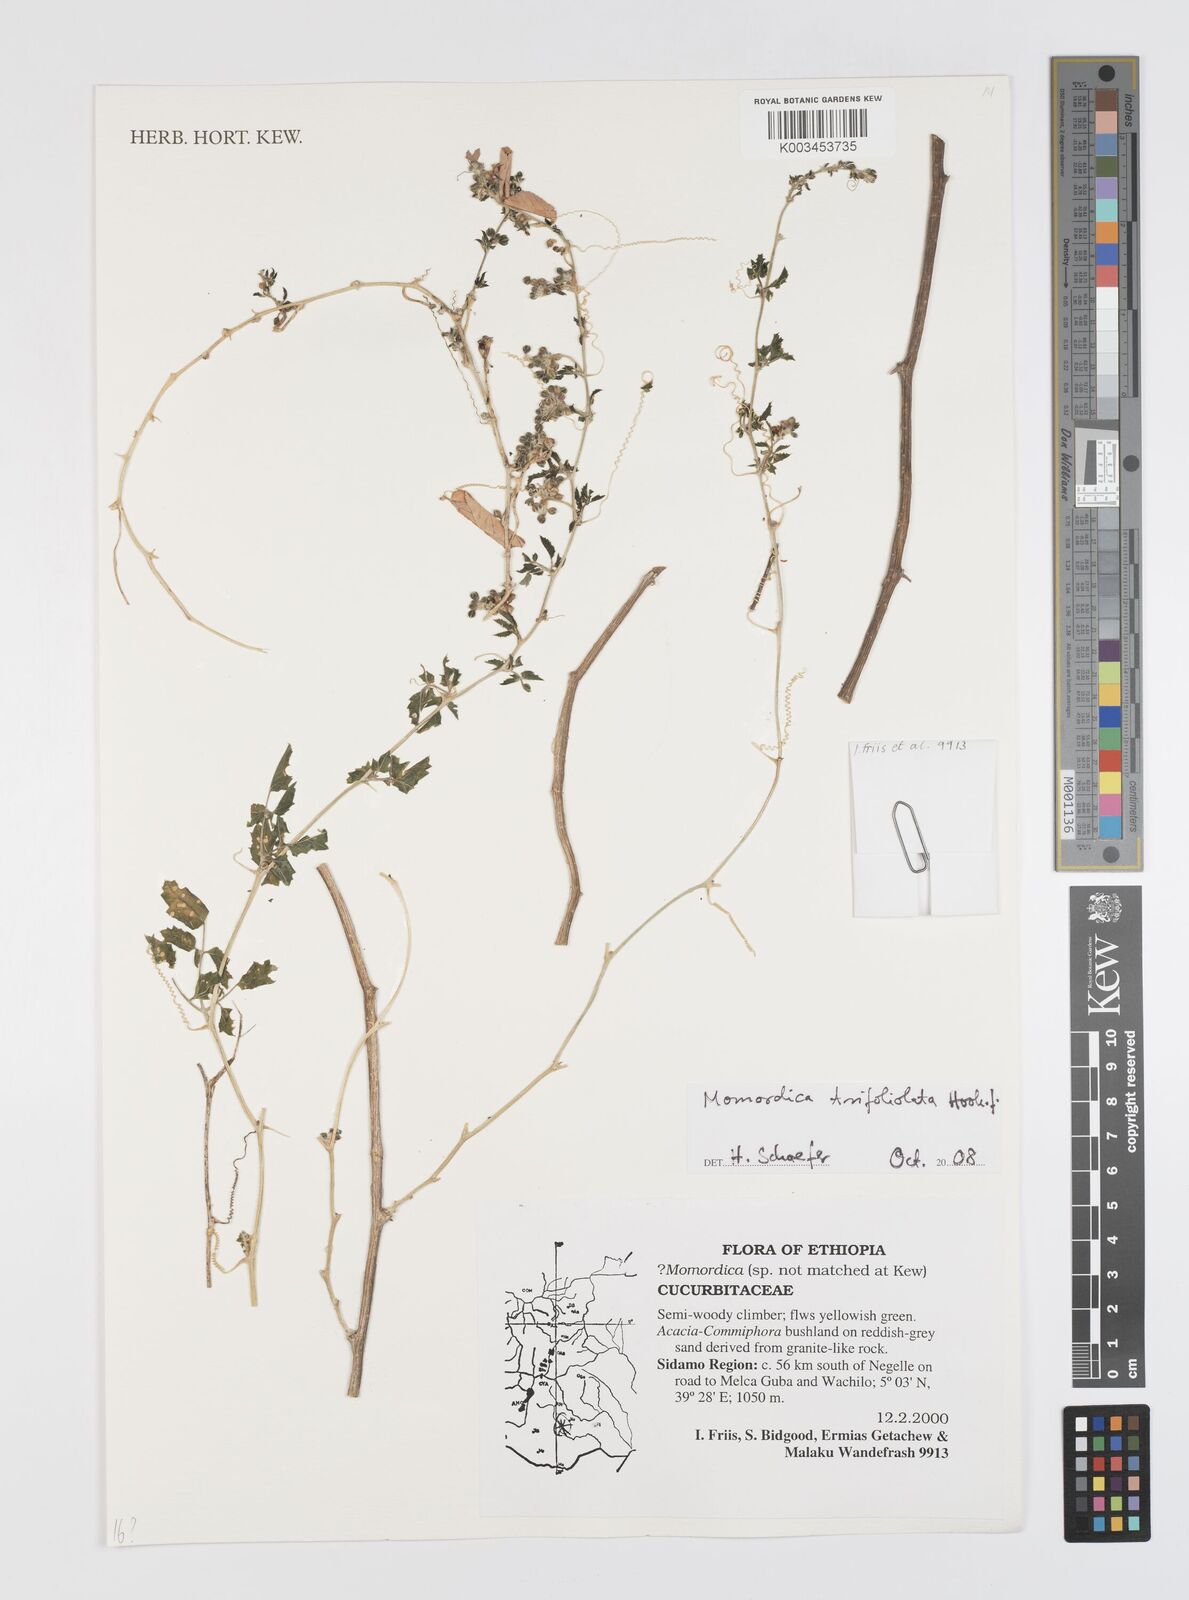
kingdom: Plantae
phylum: Tracheophyta
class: Magnoliopsida
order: Cucurbitales
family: Cucurbitaceae
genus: Momordica
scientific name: Momordica trifolia
